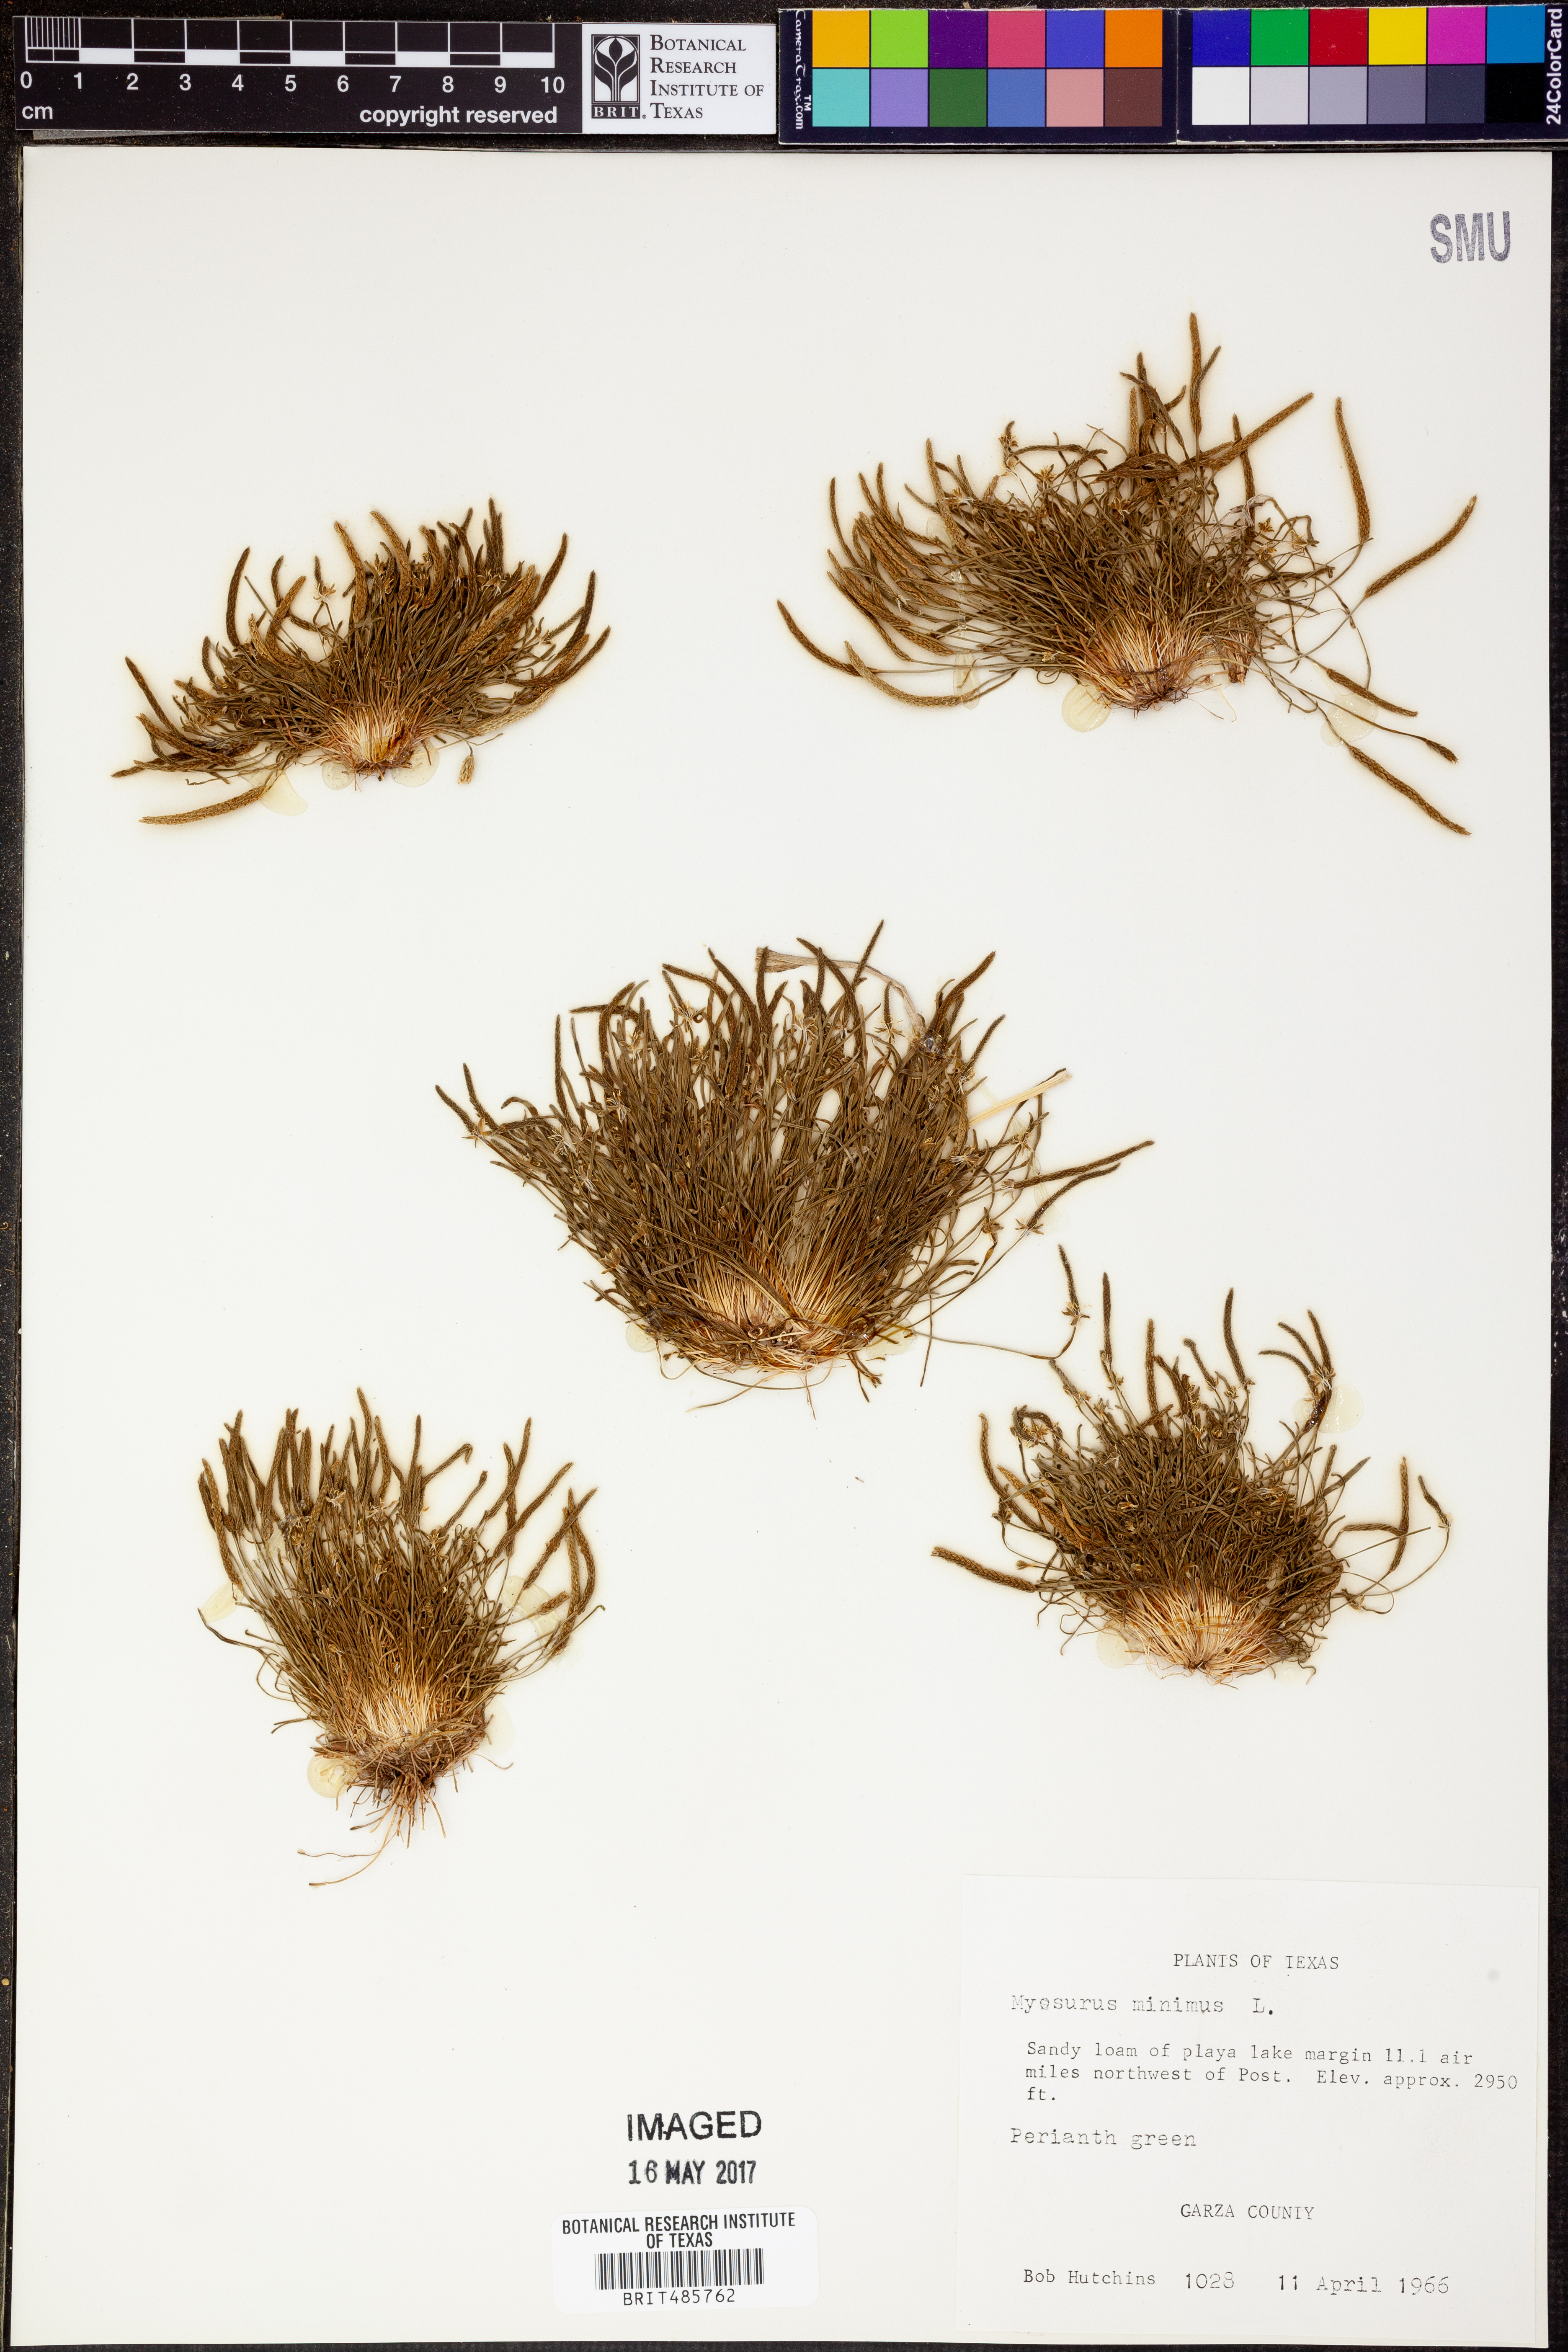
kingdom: Plantae
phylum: Tracheophyta
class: Magnoliopsida
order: Ranunculales
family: Ranunculaceae
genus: Myosurus
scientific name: Myosurus minimus
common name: Mousetail
